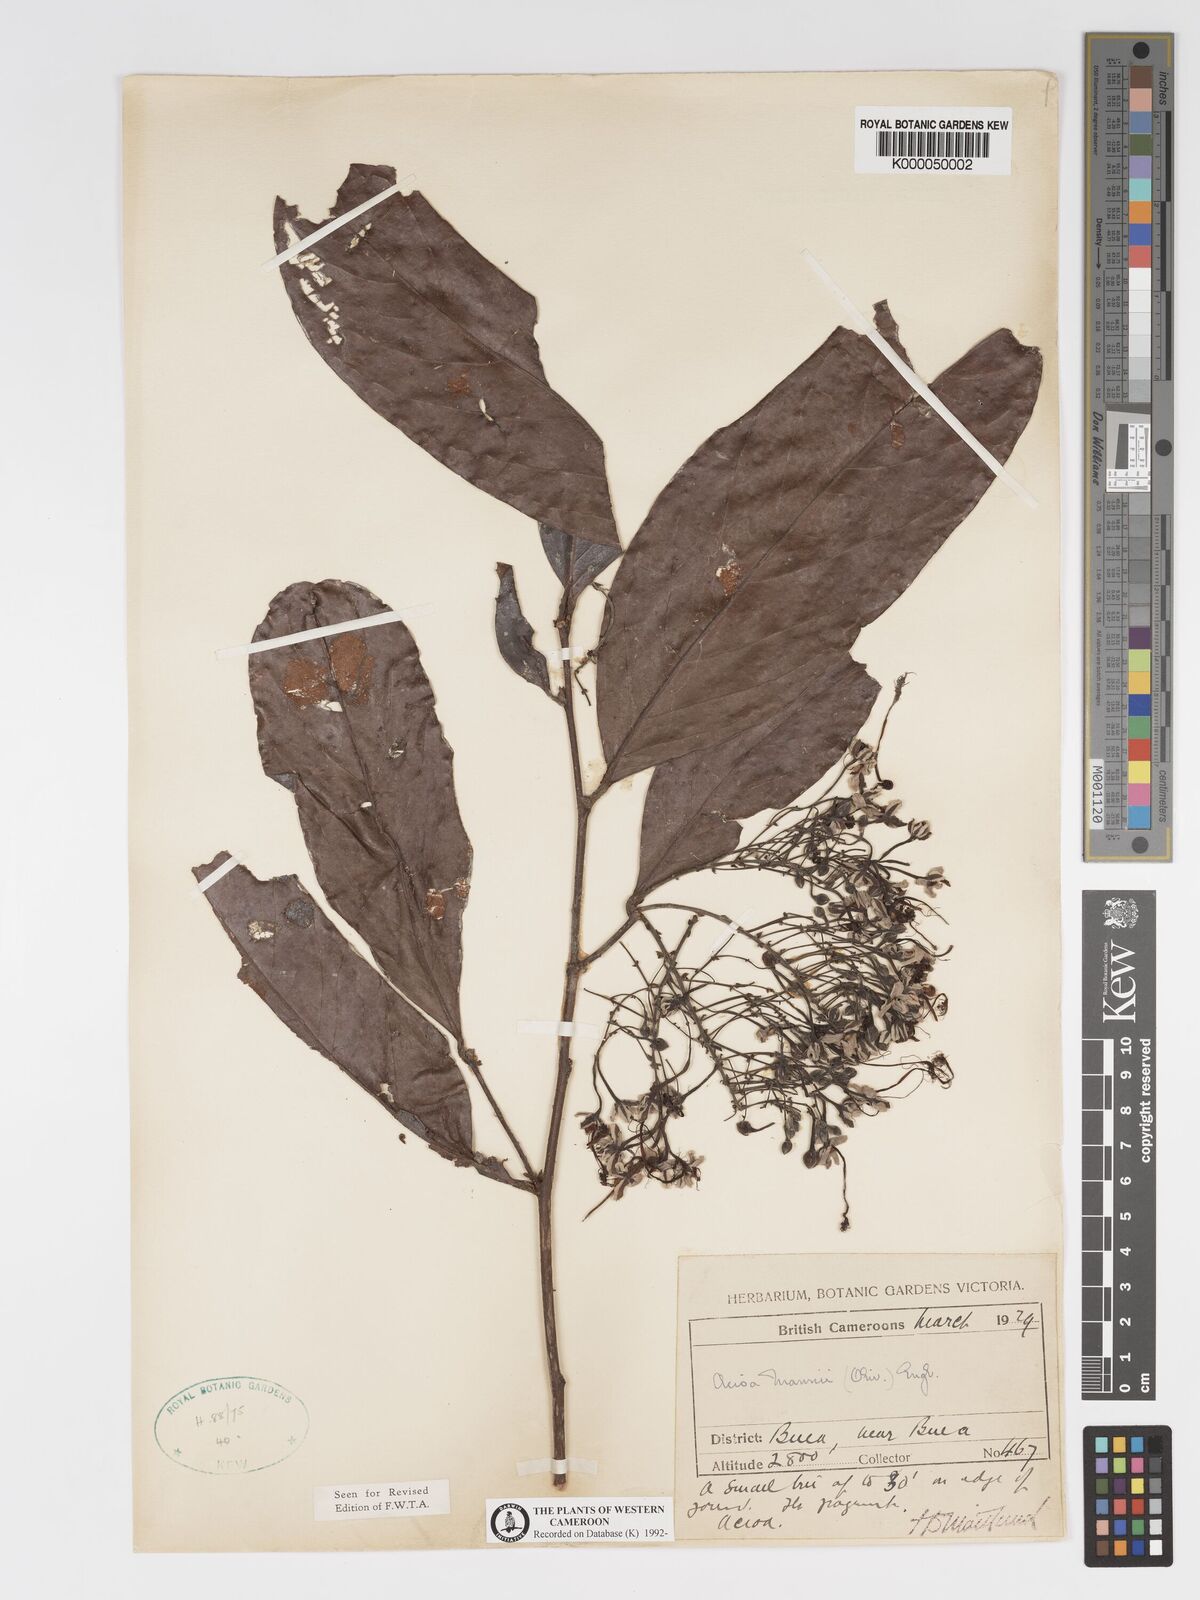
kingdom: Plantae
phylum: Tracheophyta
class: Magnoliopsida
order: Malpighiales
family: Chrysobalanaceae
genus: Dactyladenia
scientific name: Dactyladenia mannii
